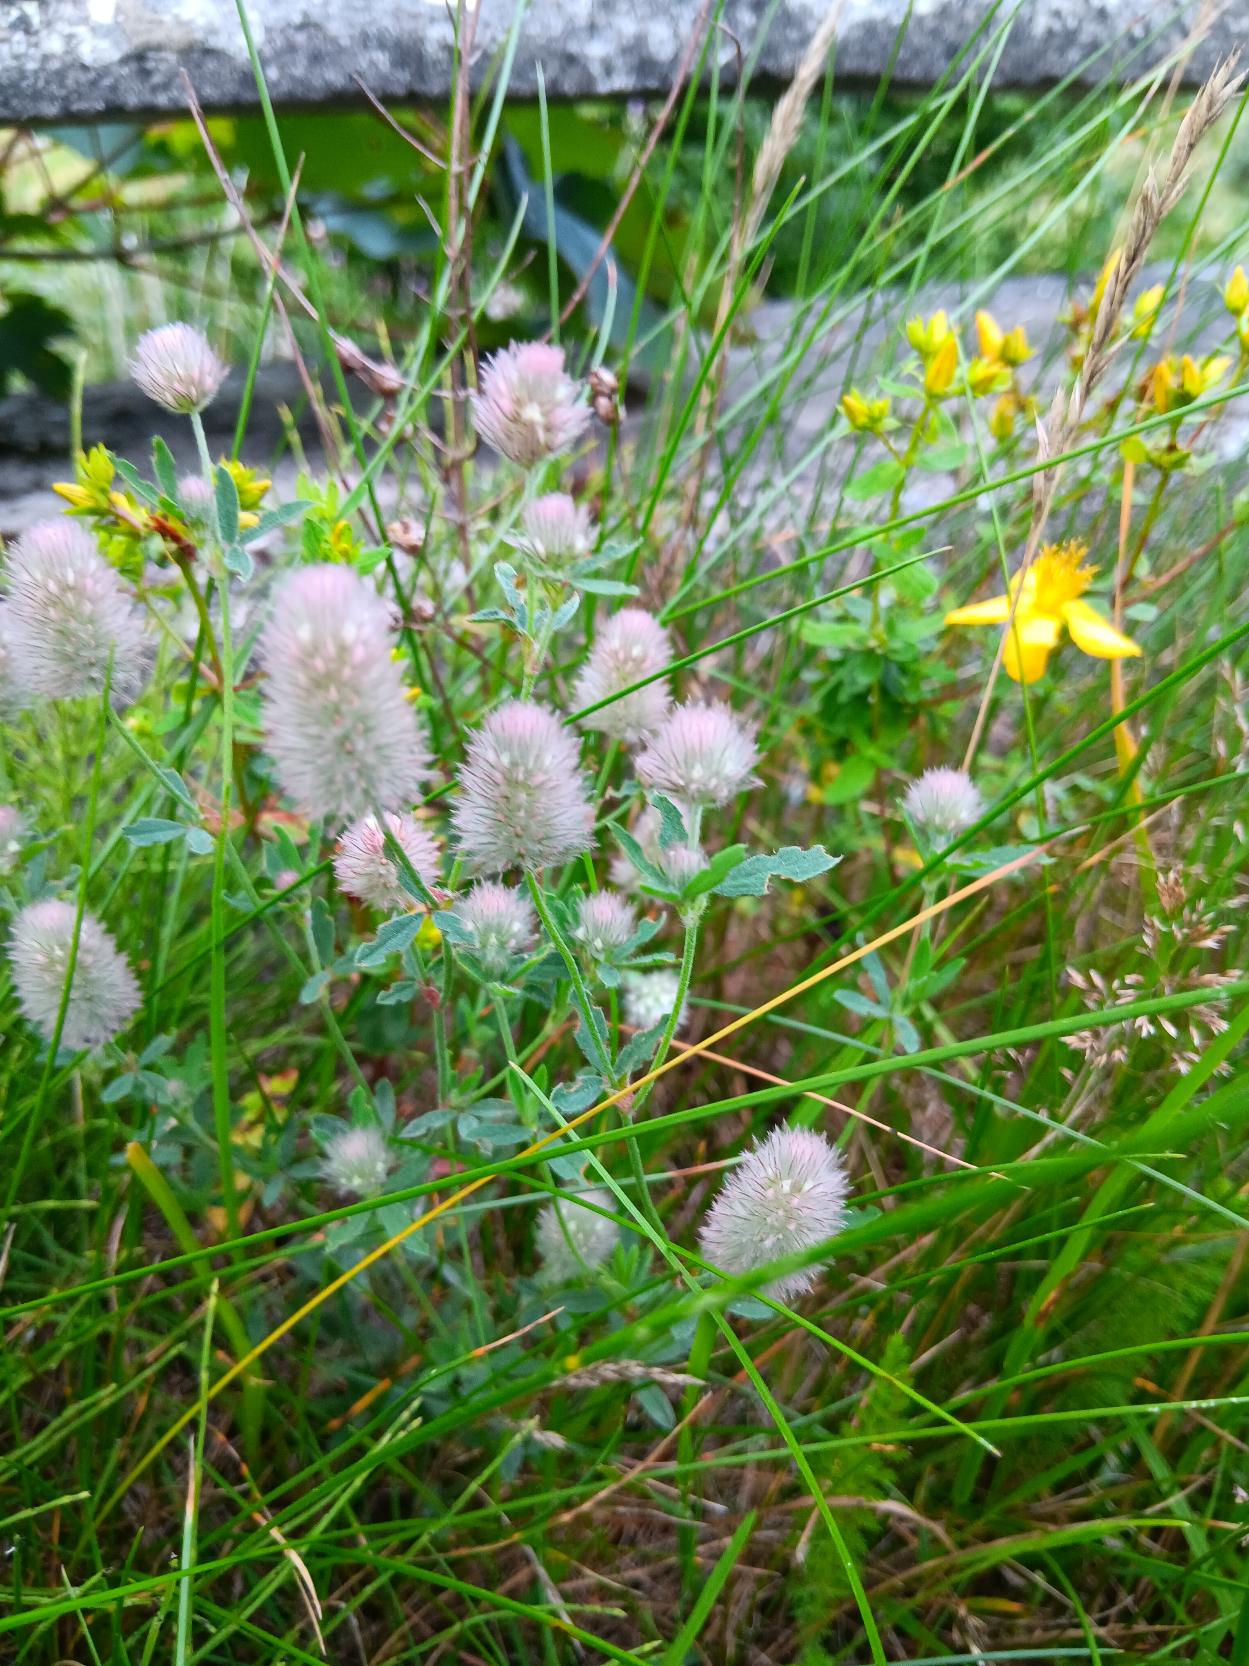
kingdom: Plantae
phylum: Tracheophyta
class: Magnoliopsida
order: Fabales
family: Fabaceae
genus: Trifolium
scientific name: Trifolium arvense
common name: Hare-kløver
